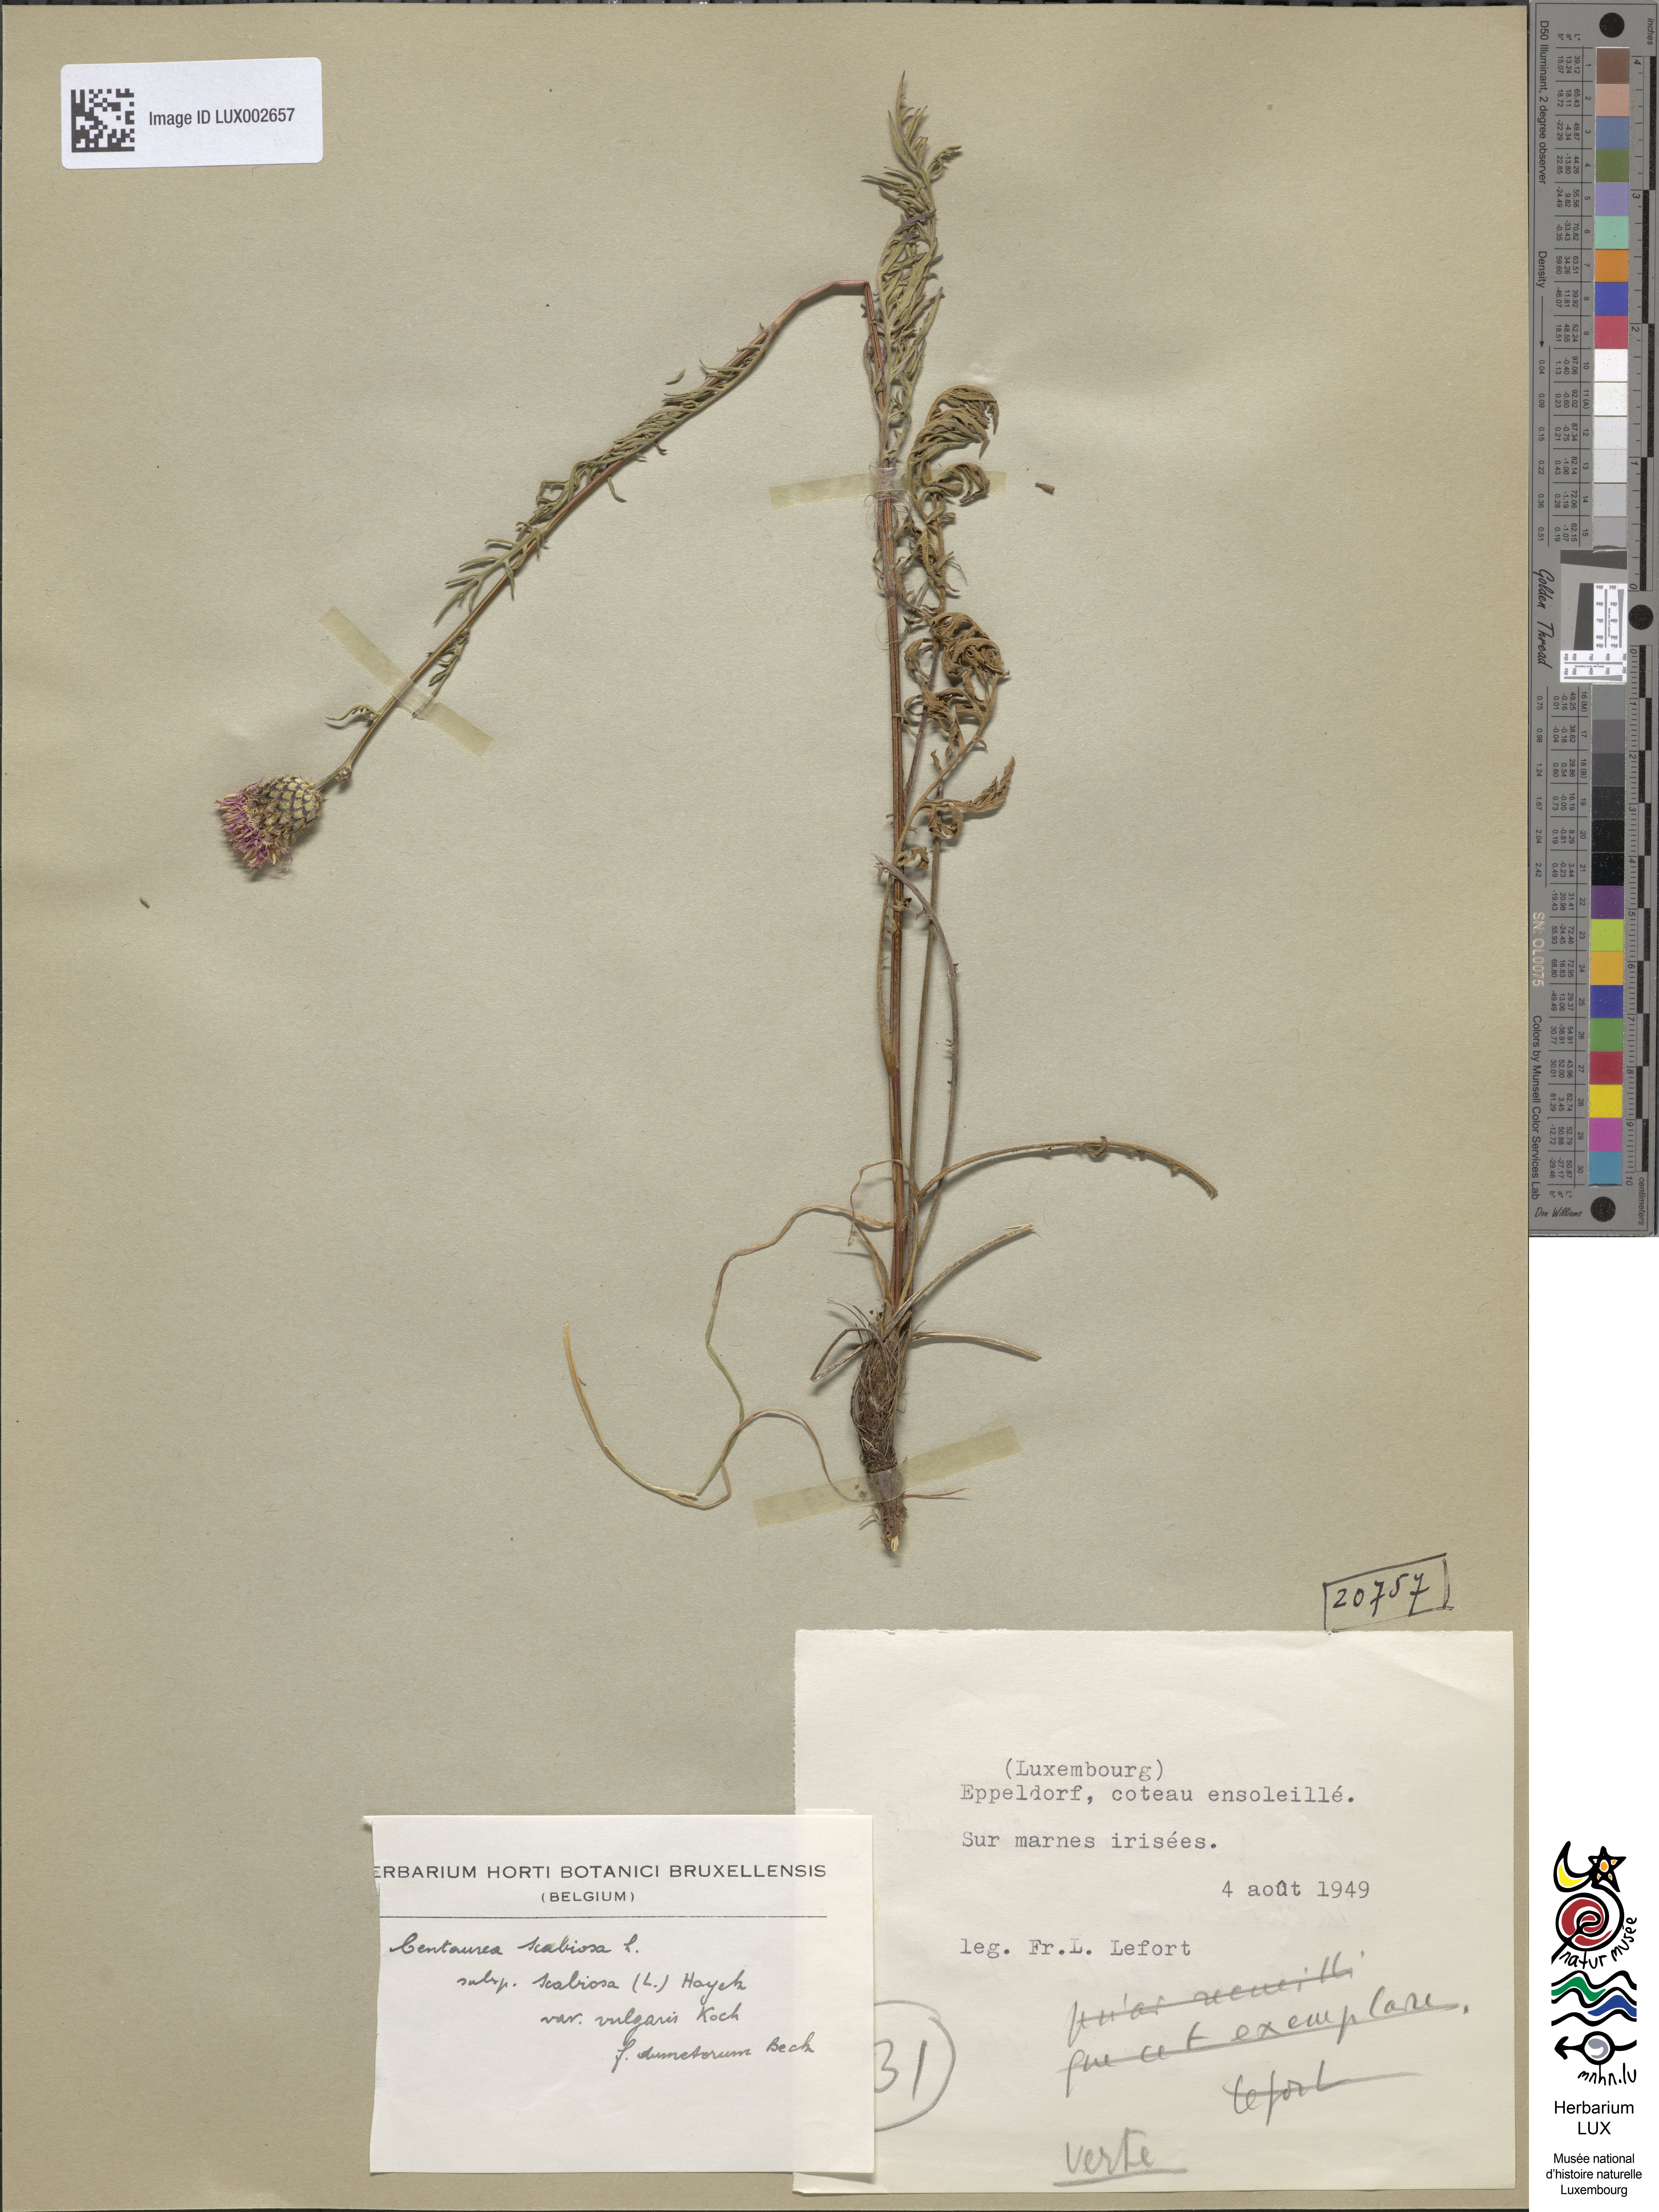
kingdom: Plantae
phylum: Tracheophyta
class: Magnoliopsida
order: Asterales
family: Asteraceae
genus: Centaurea
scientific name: Centaurea scabiosa
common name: Greater knapweed
